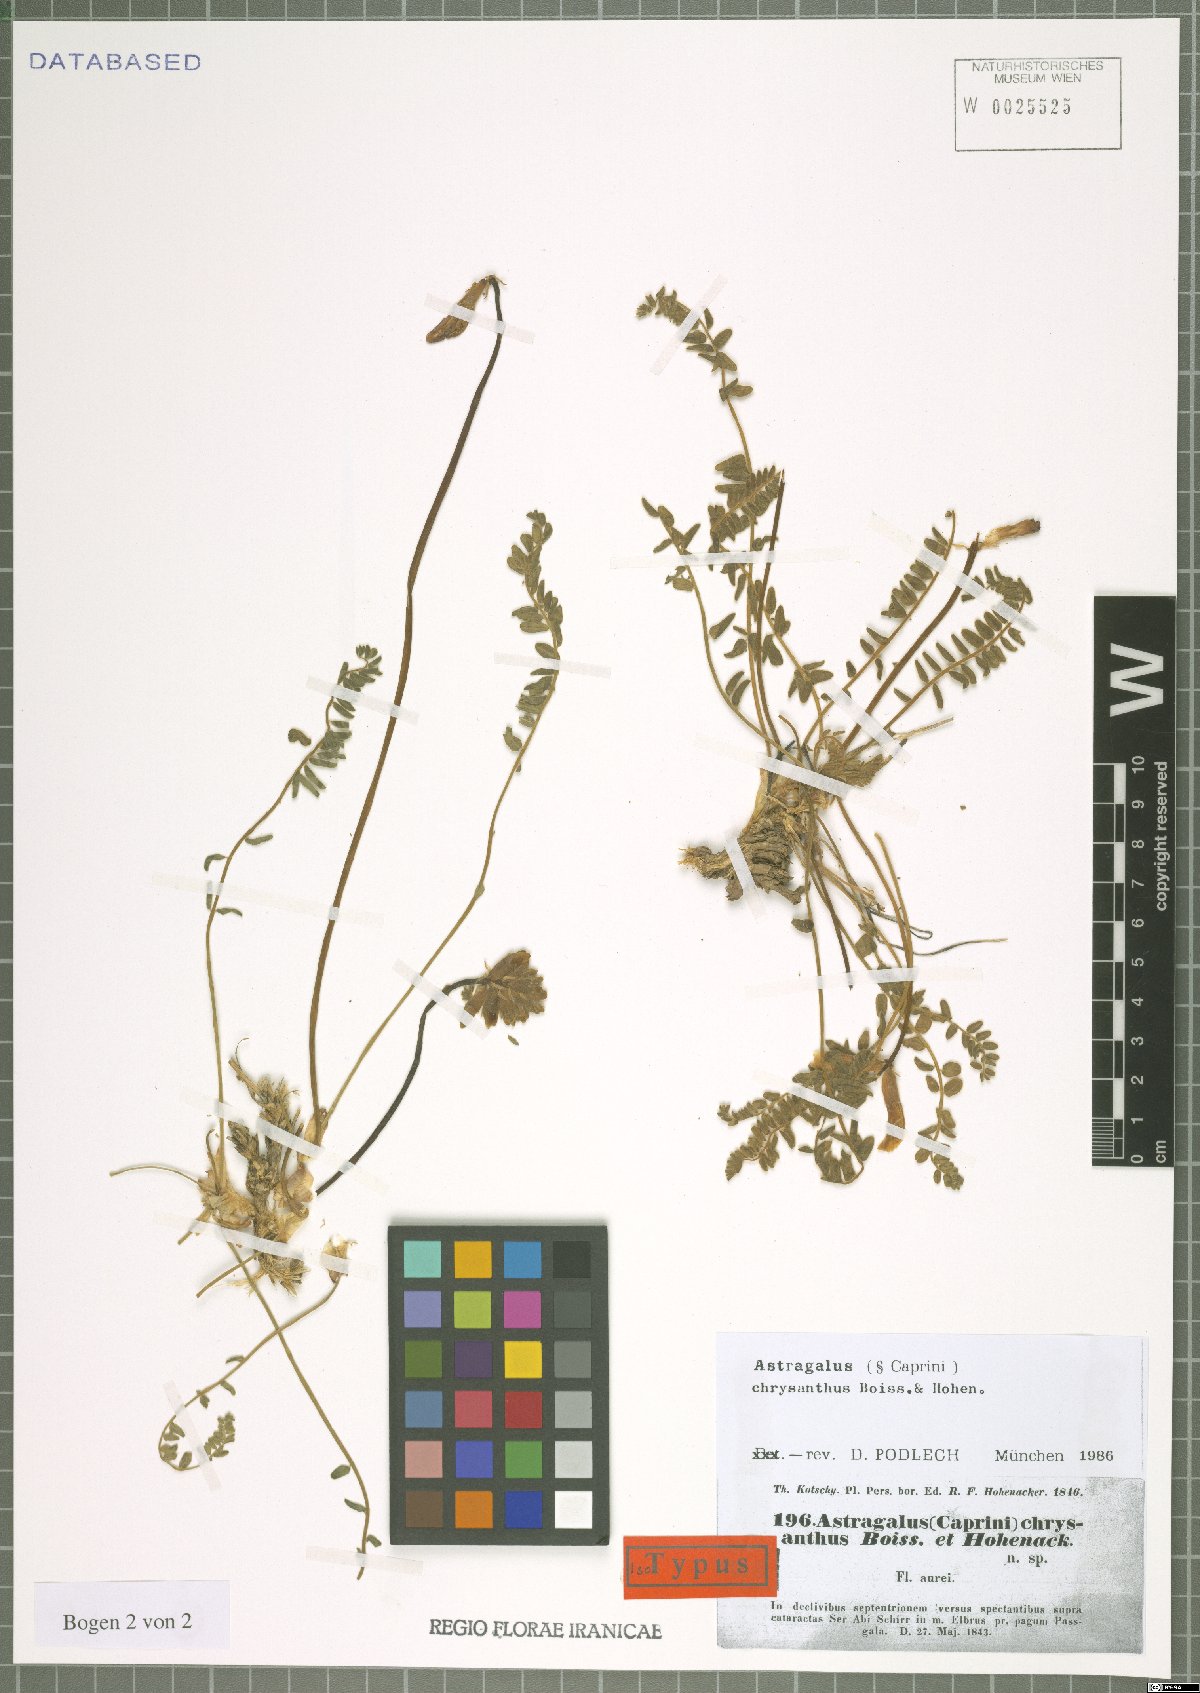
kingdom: Plantae
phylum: Tracheophyta
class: Magnoliopsida
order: Fabales
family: Fabaceae
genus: Astragalus
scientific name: Astragalus chrysanthus
